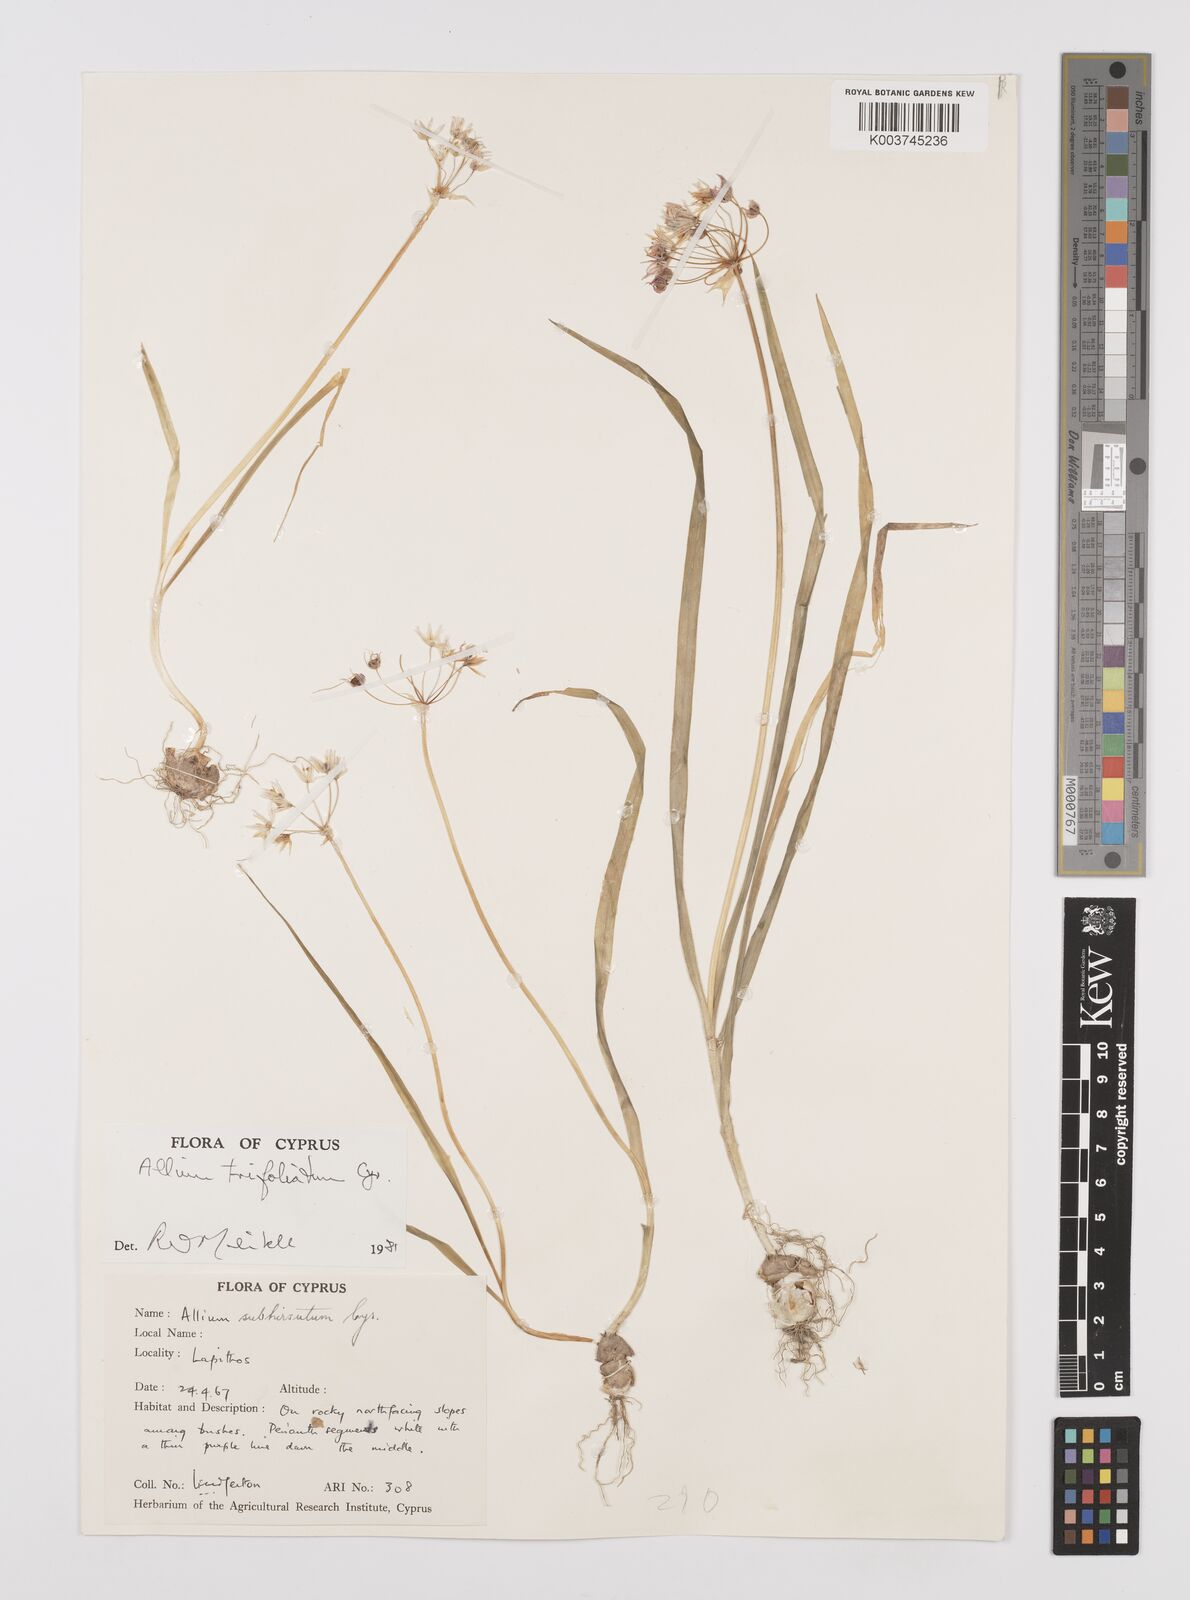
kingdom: Plantae
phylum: Tracheophyta
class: Liliopsida
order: Asparagales
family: Amaryllidaceae
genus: Allium
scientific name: Allium trifoliatum
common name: Pink garlic
